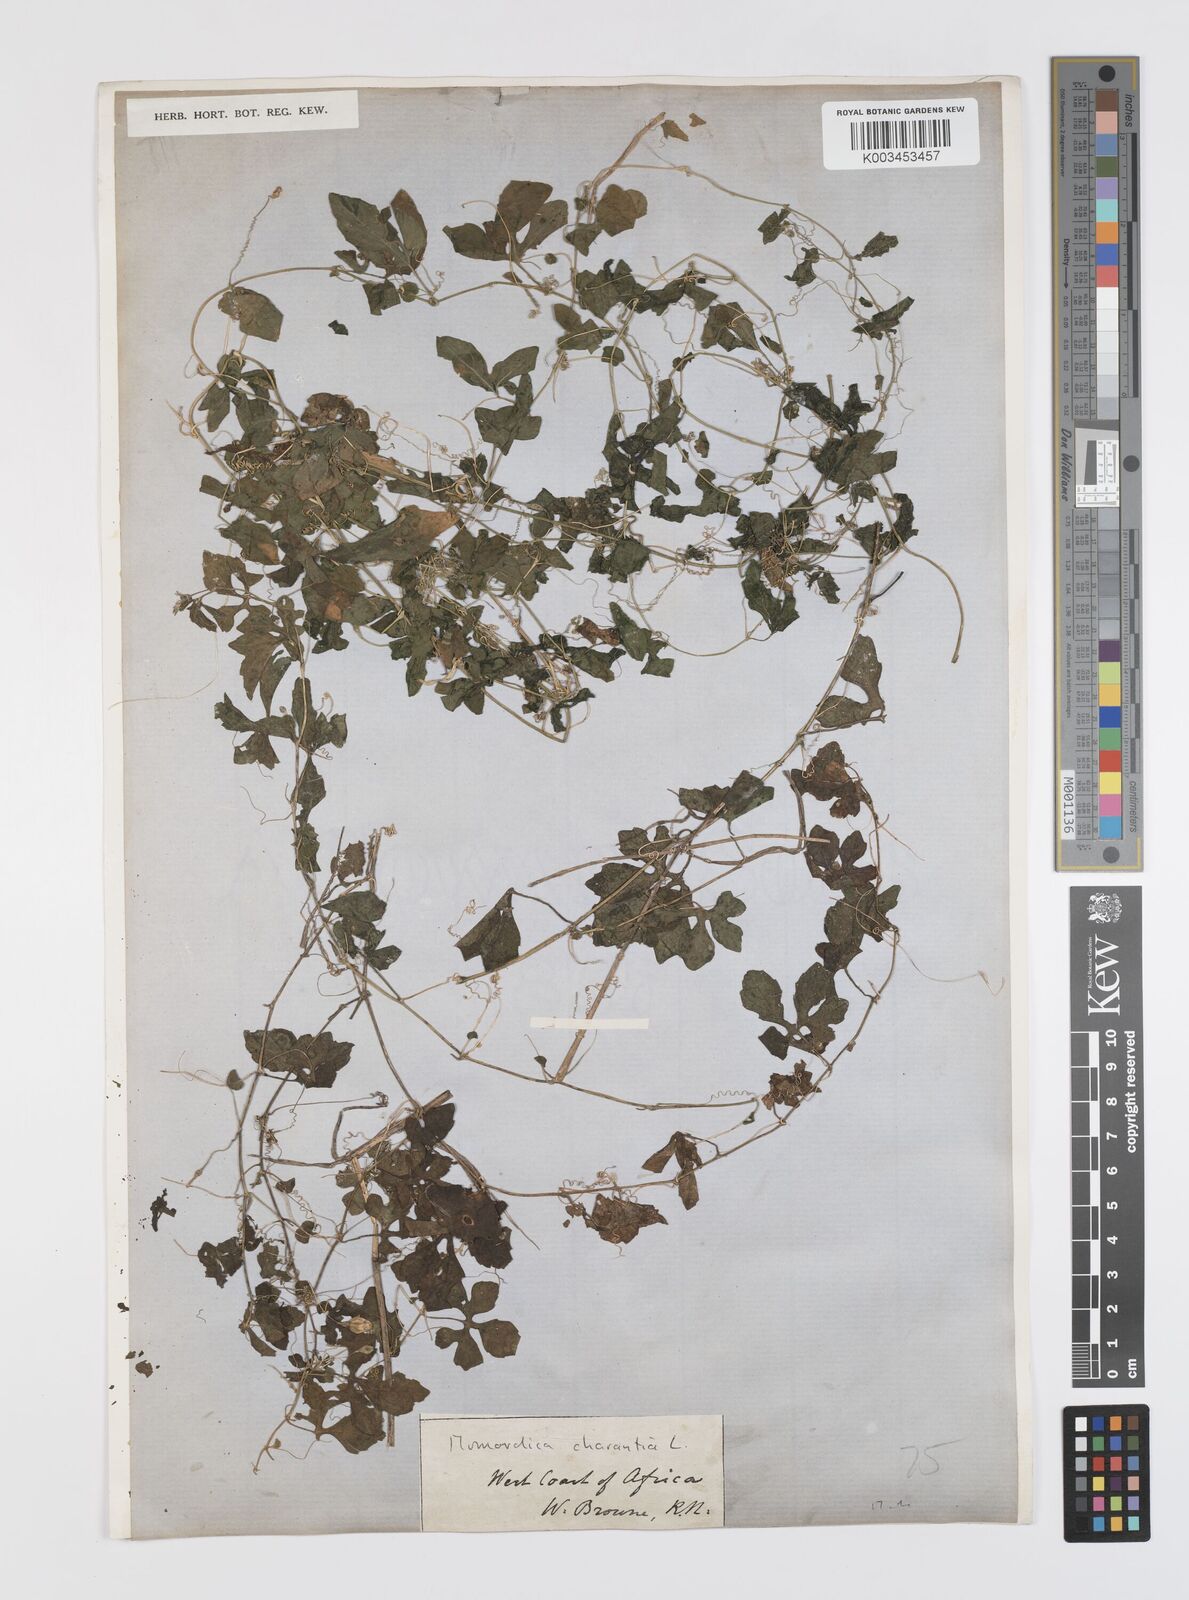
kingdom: Plantae
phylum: Tracheophyta
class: Magnoliopsida
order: Cucurbitales
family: Cucurbitaceae
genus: Momordica
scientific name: Momordica charantia
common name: Balsampear
